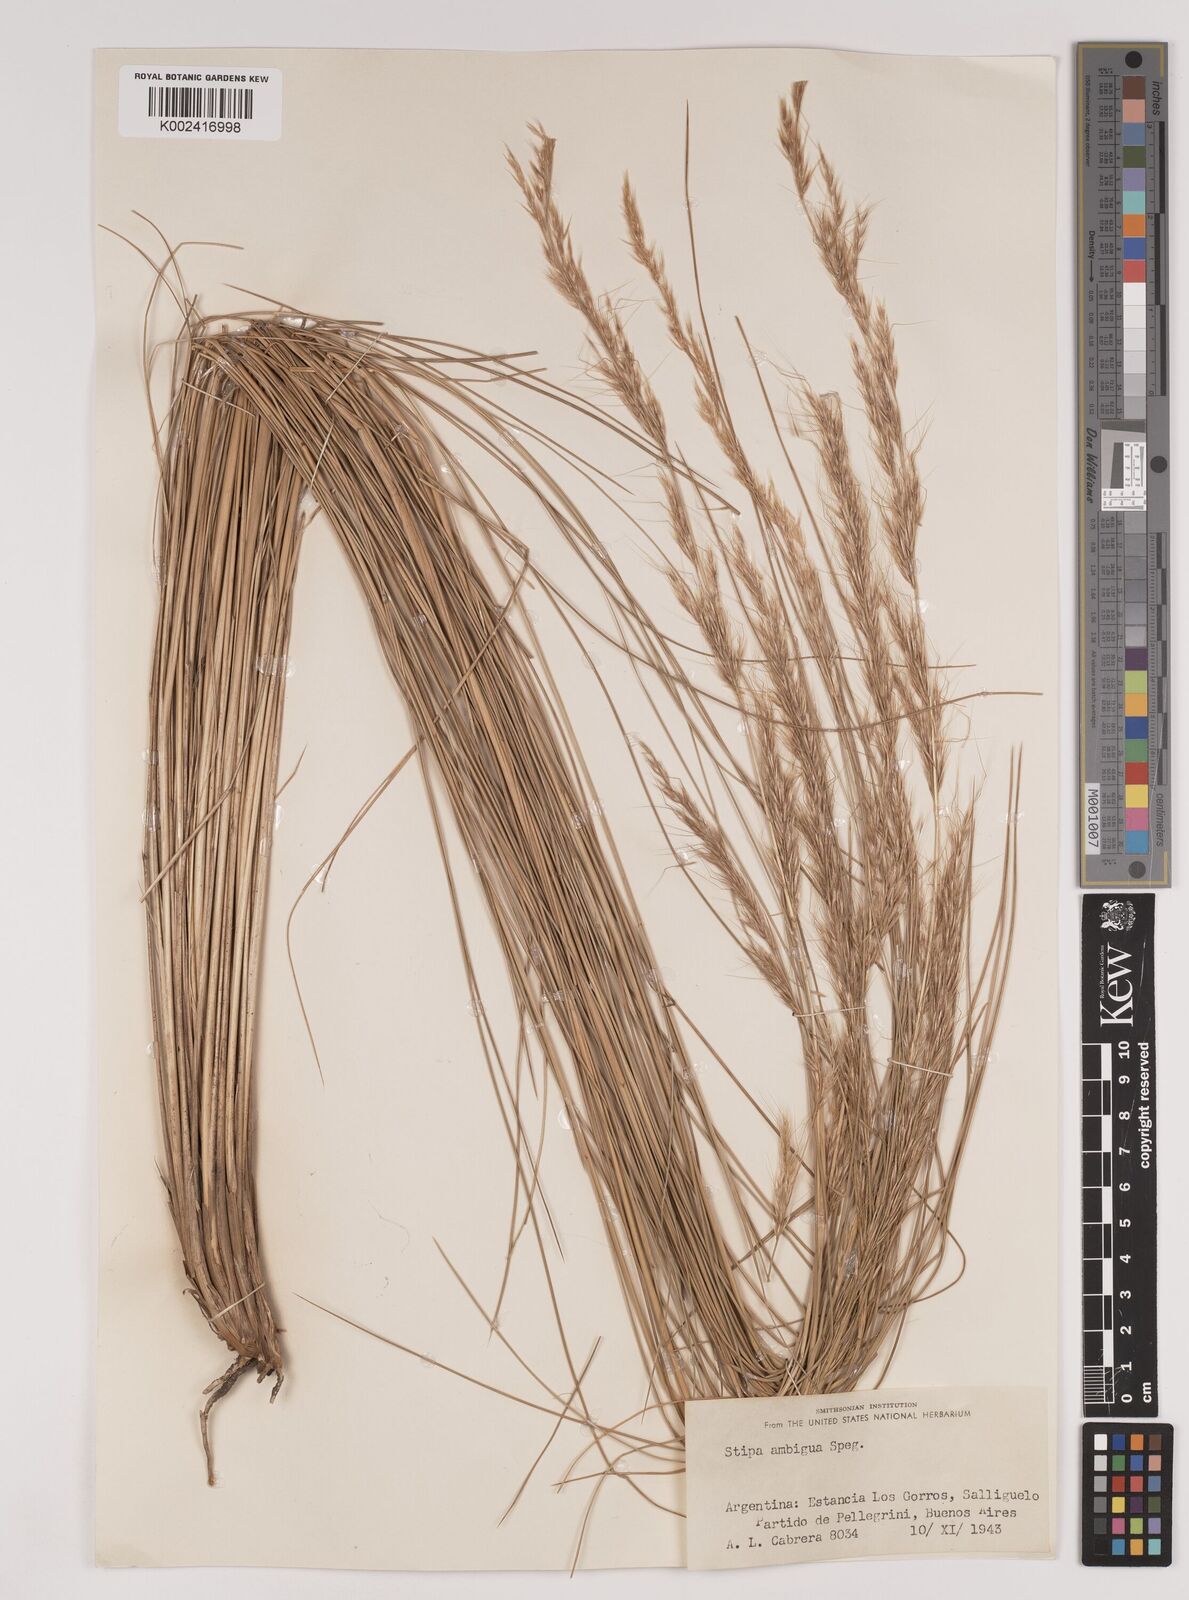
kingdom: Plantae
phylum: Tracheophyta
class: Liliopsida
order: Poales
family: Poaceae
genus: Amelichloa
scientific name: Amelichloa ambigua
